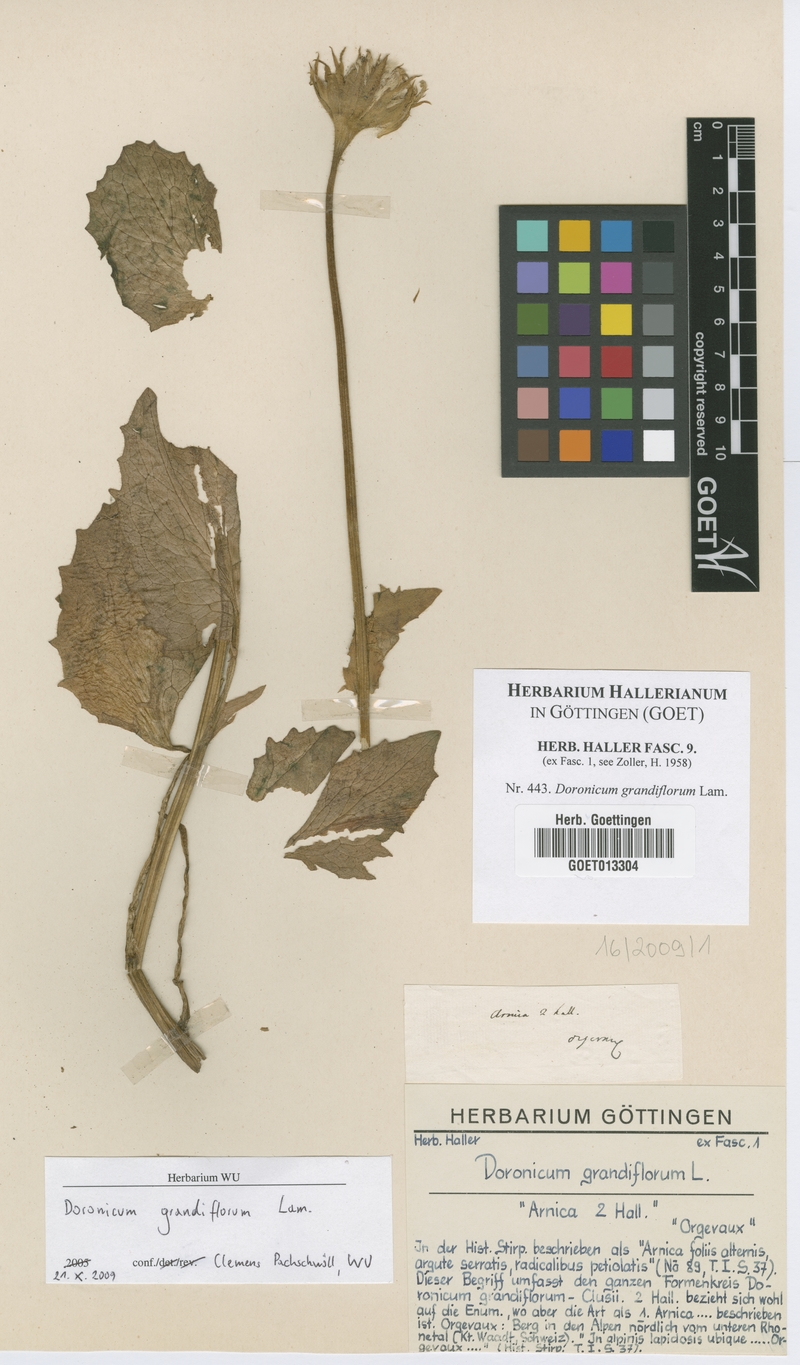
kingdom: Plantae
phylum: Tracheophyta
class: Magnoliopsida
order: Asterales
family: Asteraceae
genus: Doronicum
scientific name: Doronicum grandiflorum
